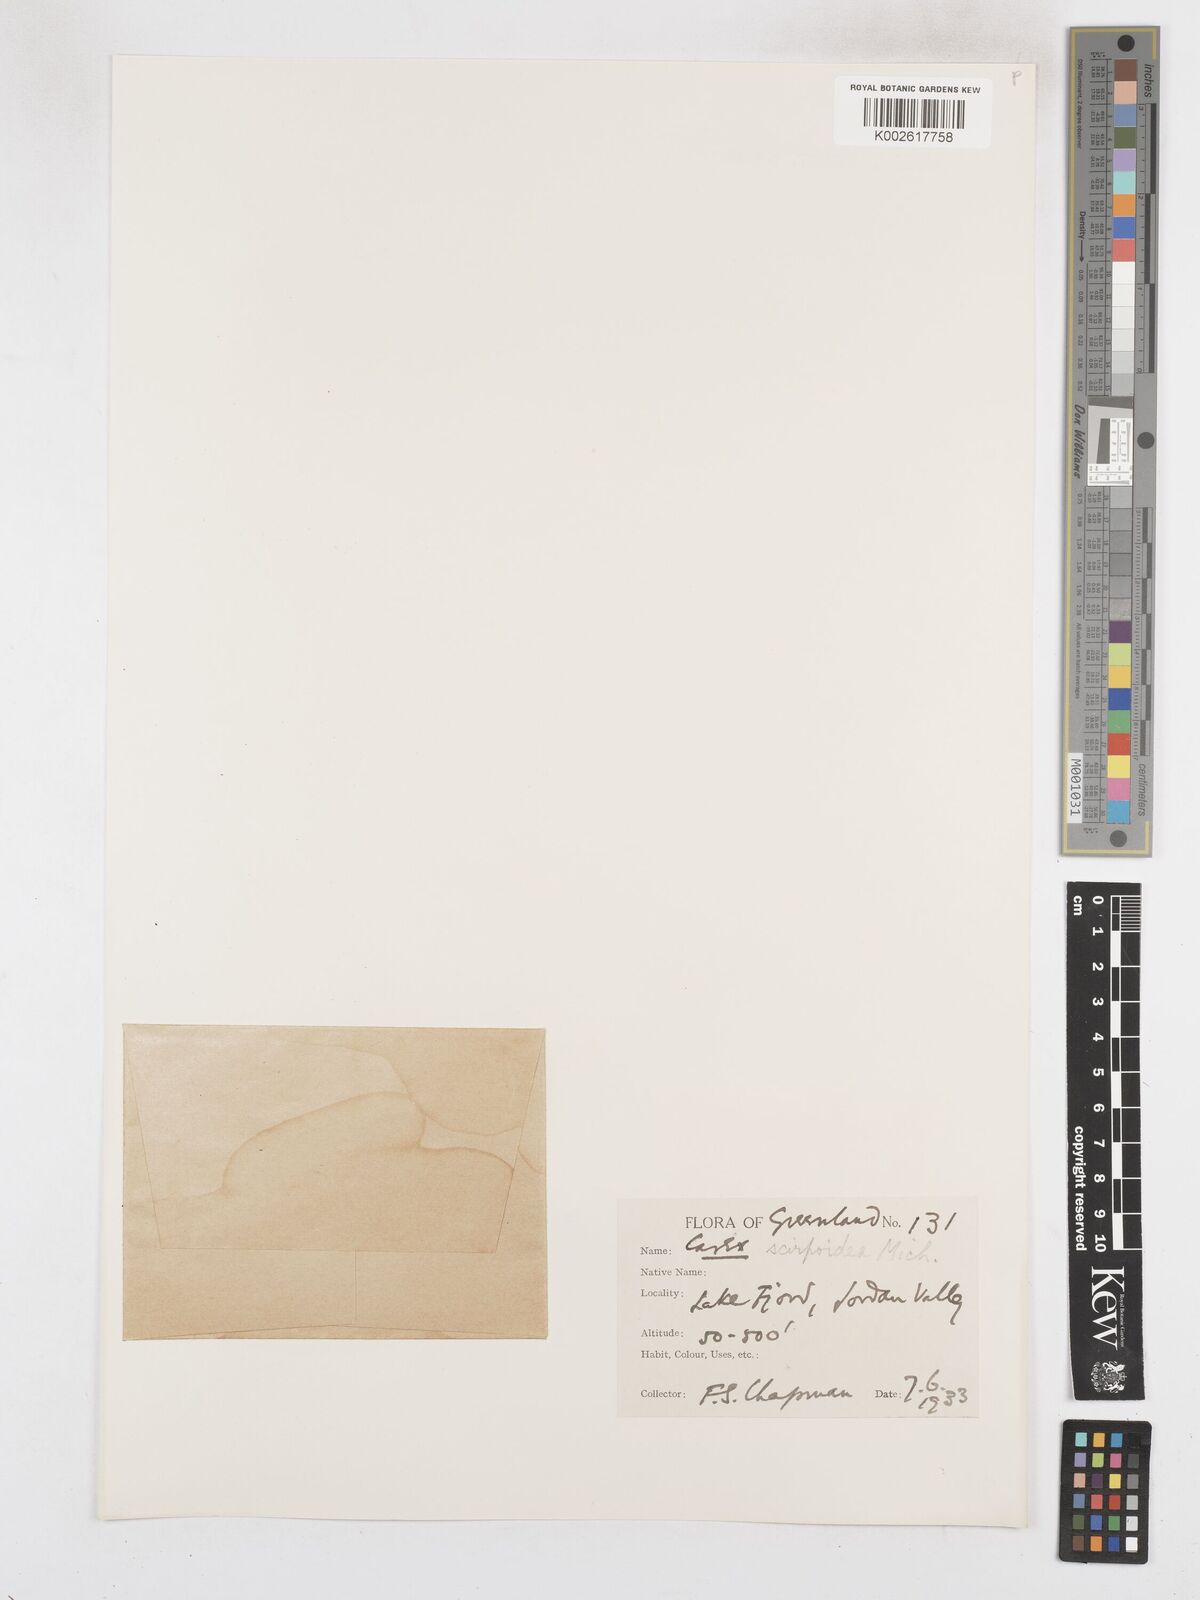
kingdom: Plantae
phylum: Tracheophyta
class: Liliopsida
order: Poales
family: Cyperaceae
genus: Carex
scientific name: Carex scirpoidea
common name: Canada single-spike sedge
